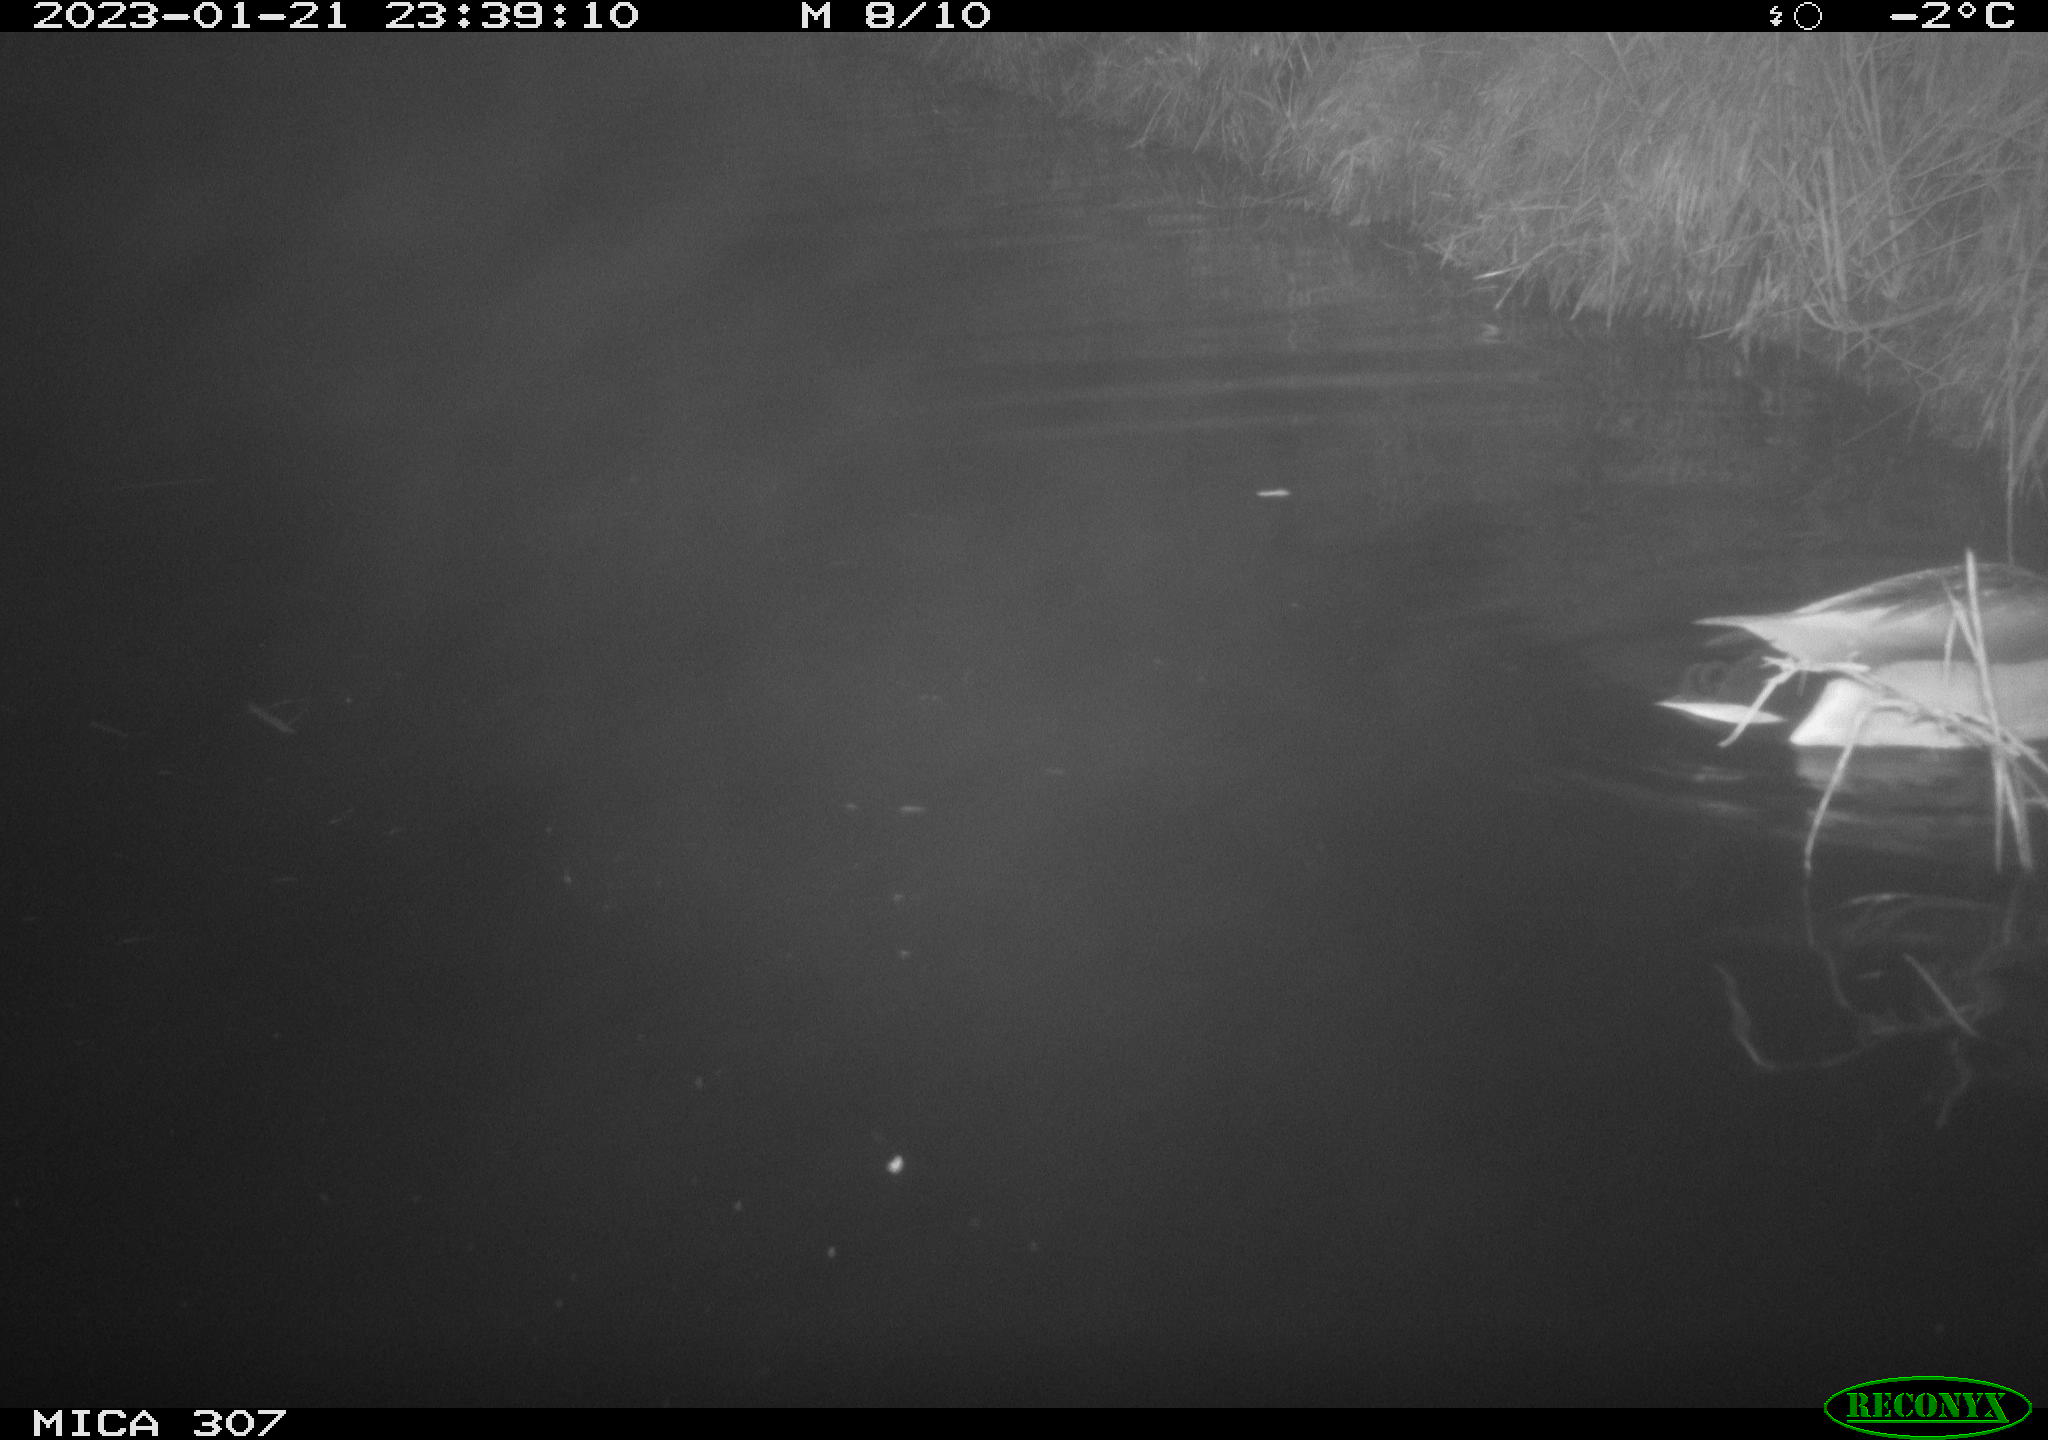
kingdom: Animalia
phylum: Chordata
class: Aves
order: Anseriformes
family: Anatidae
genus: Anas
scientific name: Anas
